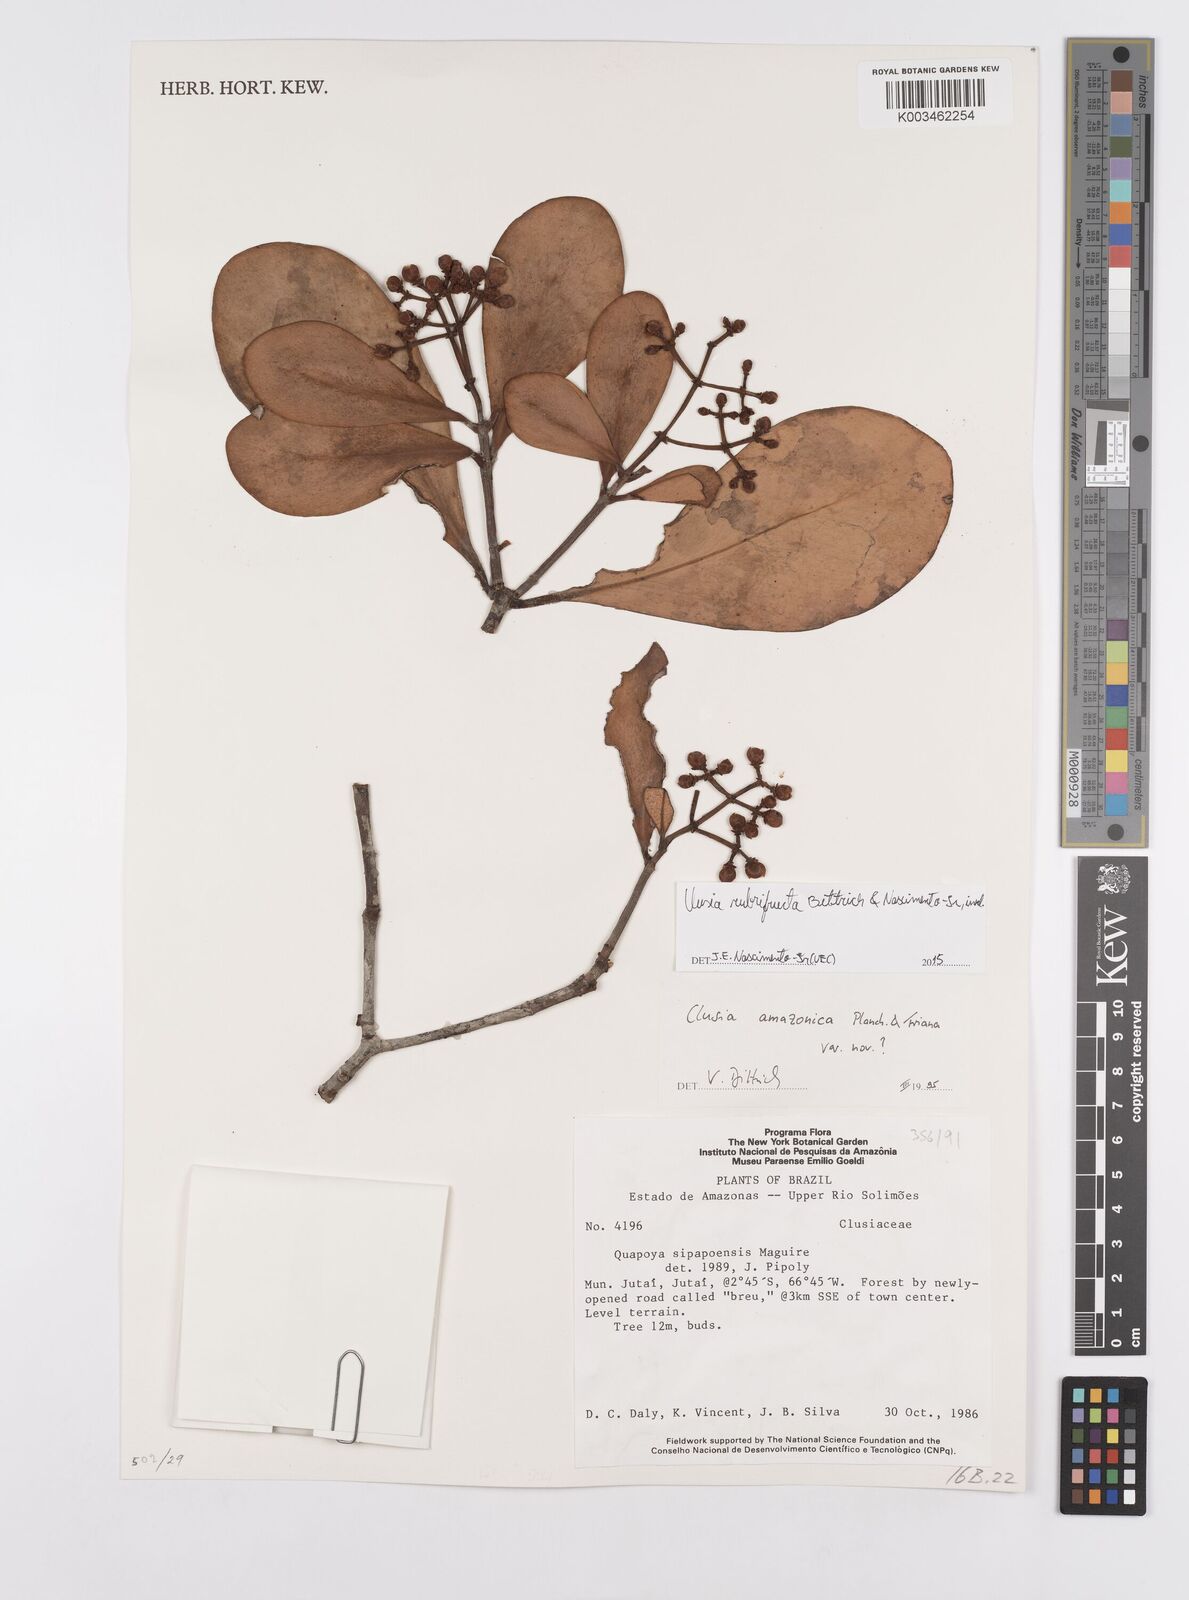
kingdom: Plantae
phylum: Tracheophyta
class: Magnoliopsida
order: Malpighiales
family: Clusiaceae
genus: Clusia
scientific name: Clusia rubrifructa
